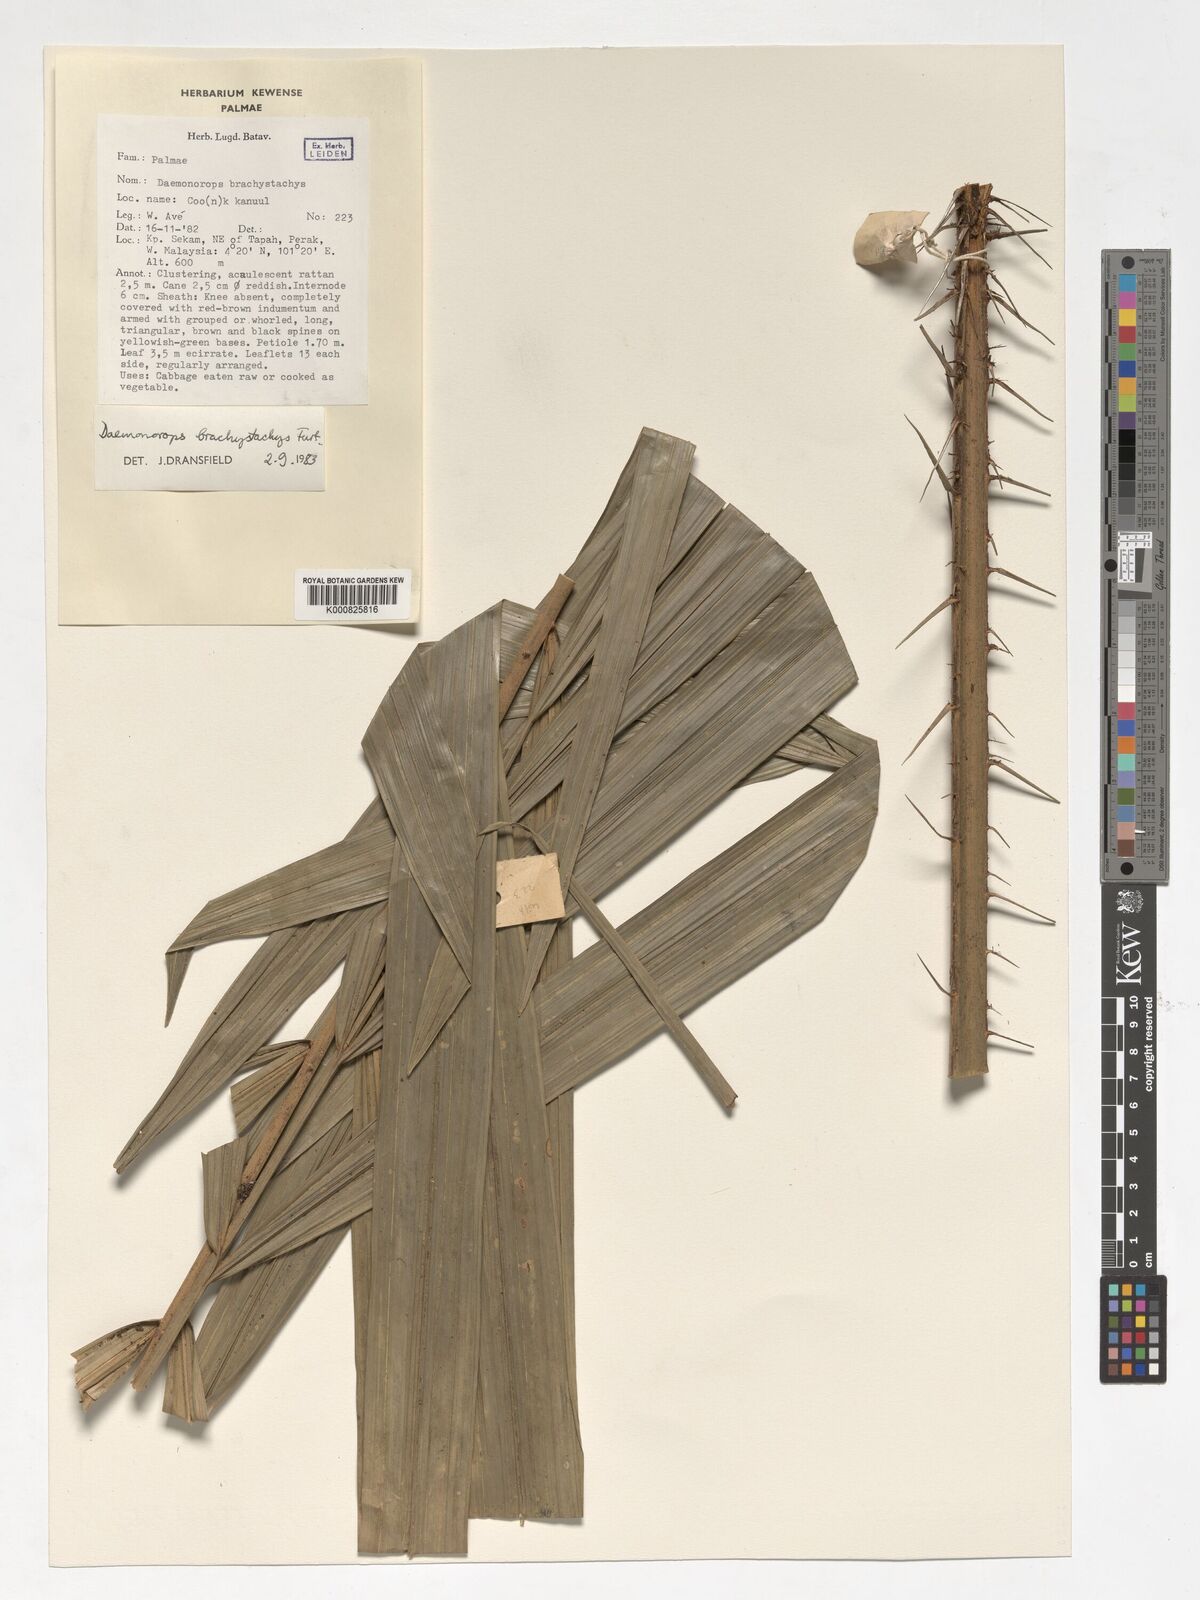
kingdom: Plantae
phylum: Tracheophyta
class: Liliopsida
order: Arecales
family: Arecaceae
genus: Calamus
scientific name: Calamus propinquus
